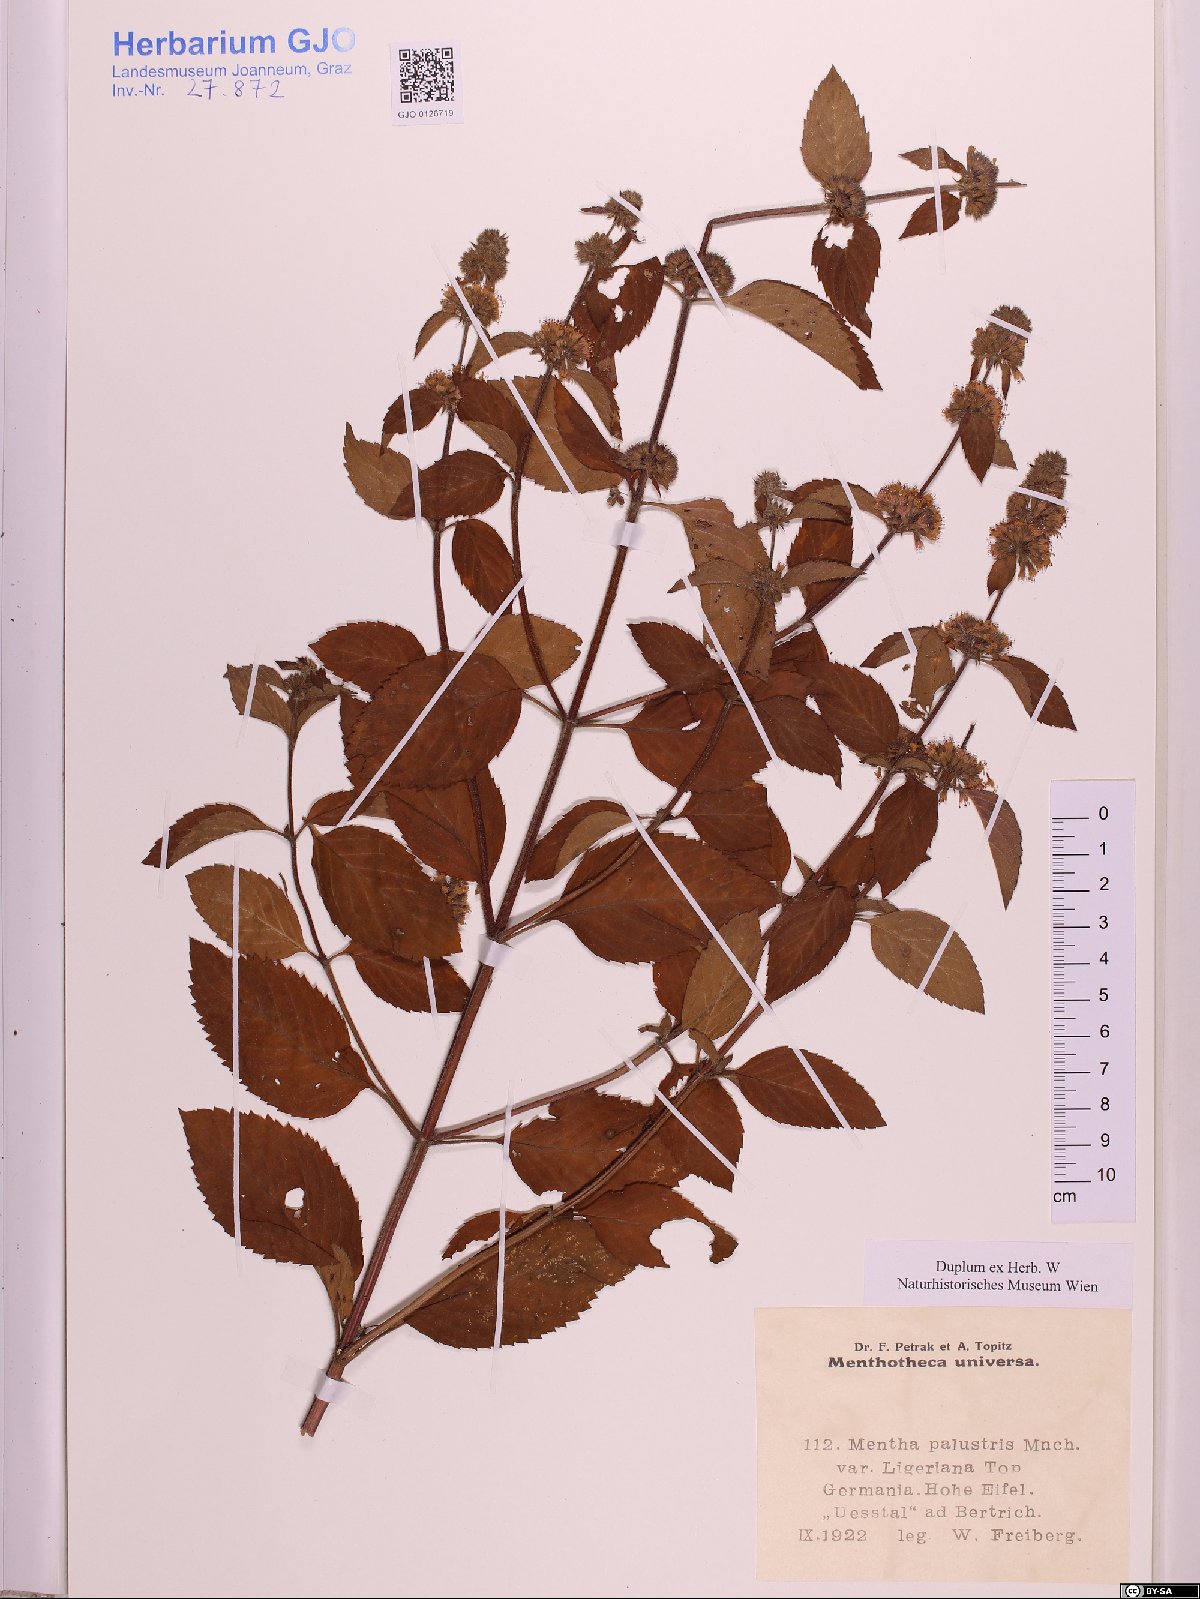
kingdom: Plantae
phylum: Tracheophyta
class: Magnoliopsida
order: Lamiales
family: Lamiaceae
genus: Mentha
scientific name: Mentha arvensis
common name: Corn mint
